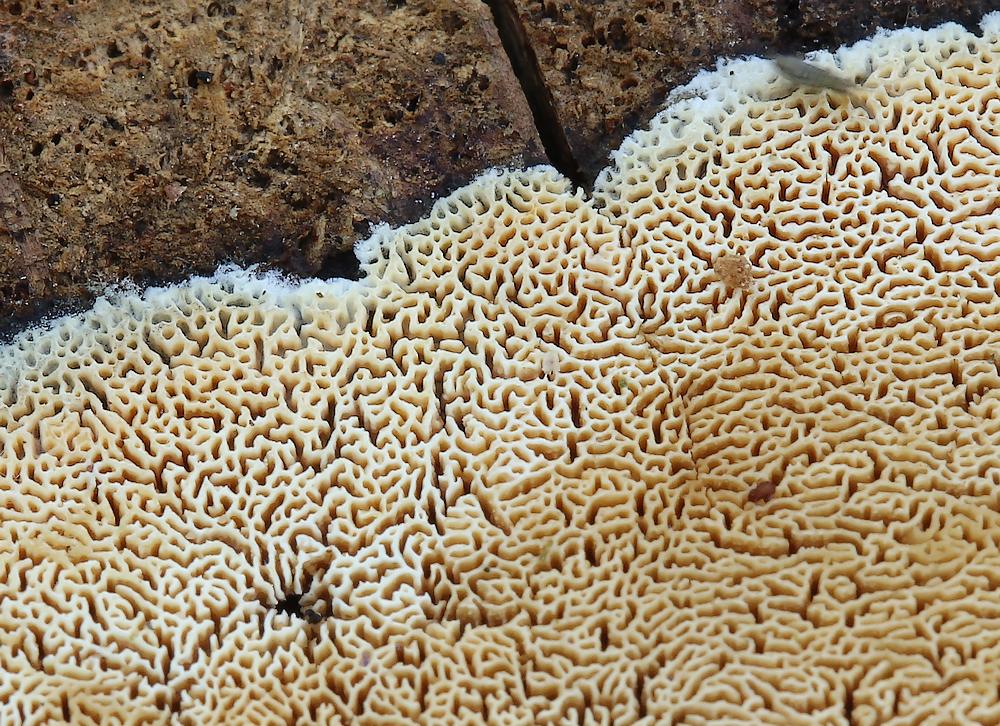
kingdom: Fungi
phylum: Basidiomycota
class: Agaricomycetes
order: Hymenochaetales
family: Schizoporaceae
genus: Xylodon
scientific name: Xylodon subtropicus
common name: labyrint-tandsvamp
